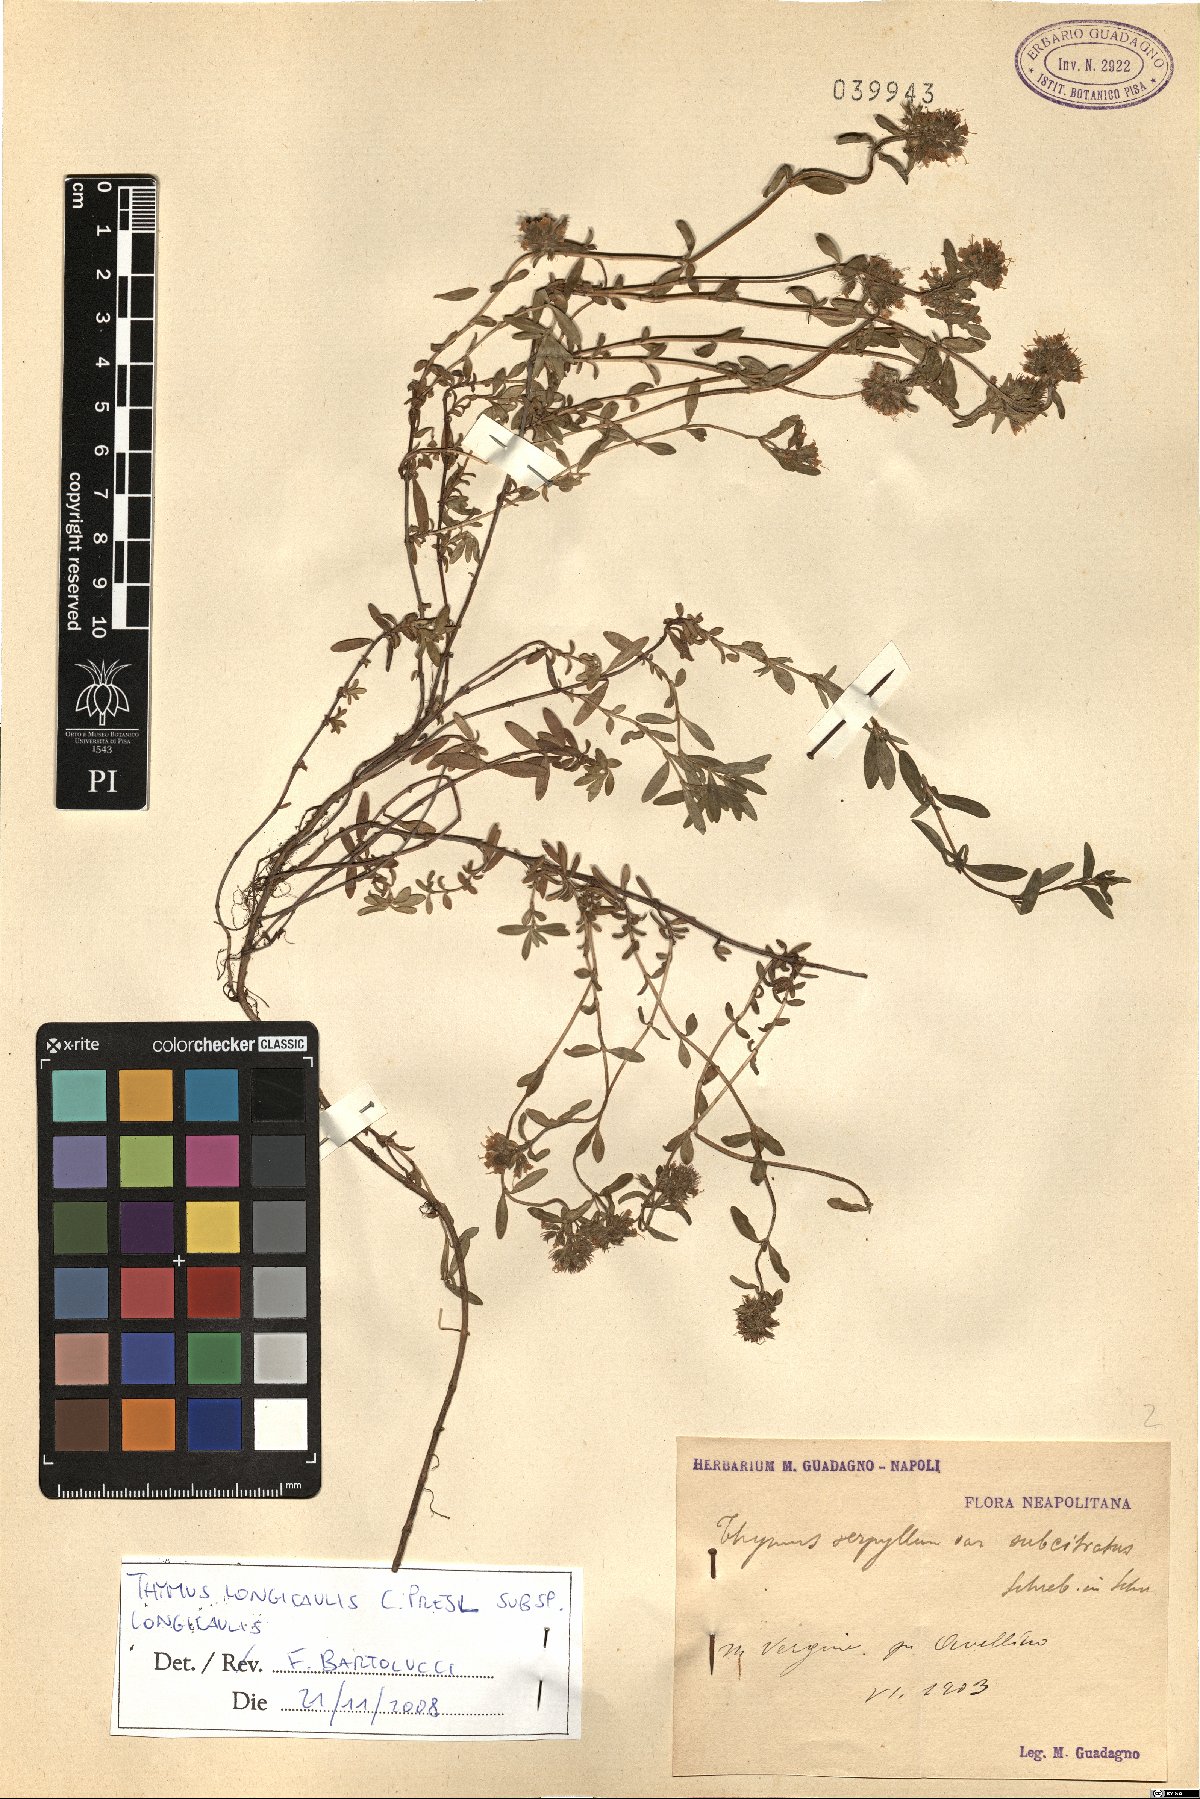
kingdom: Plantae
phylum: Tracheophyta
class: Magnoliopsida
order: Lamiales
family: Lamiaceae
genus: Thymus
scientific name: Thymus longicaulis
